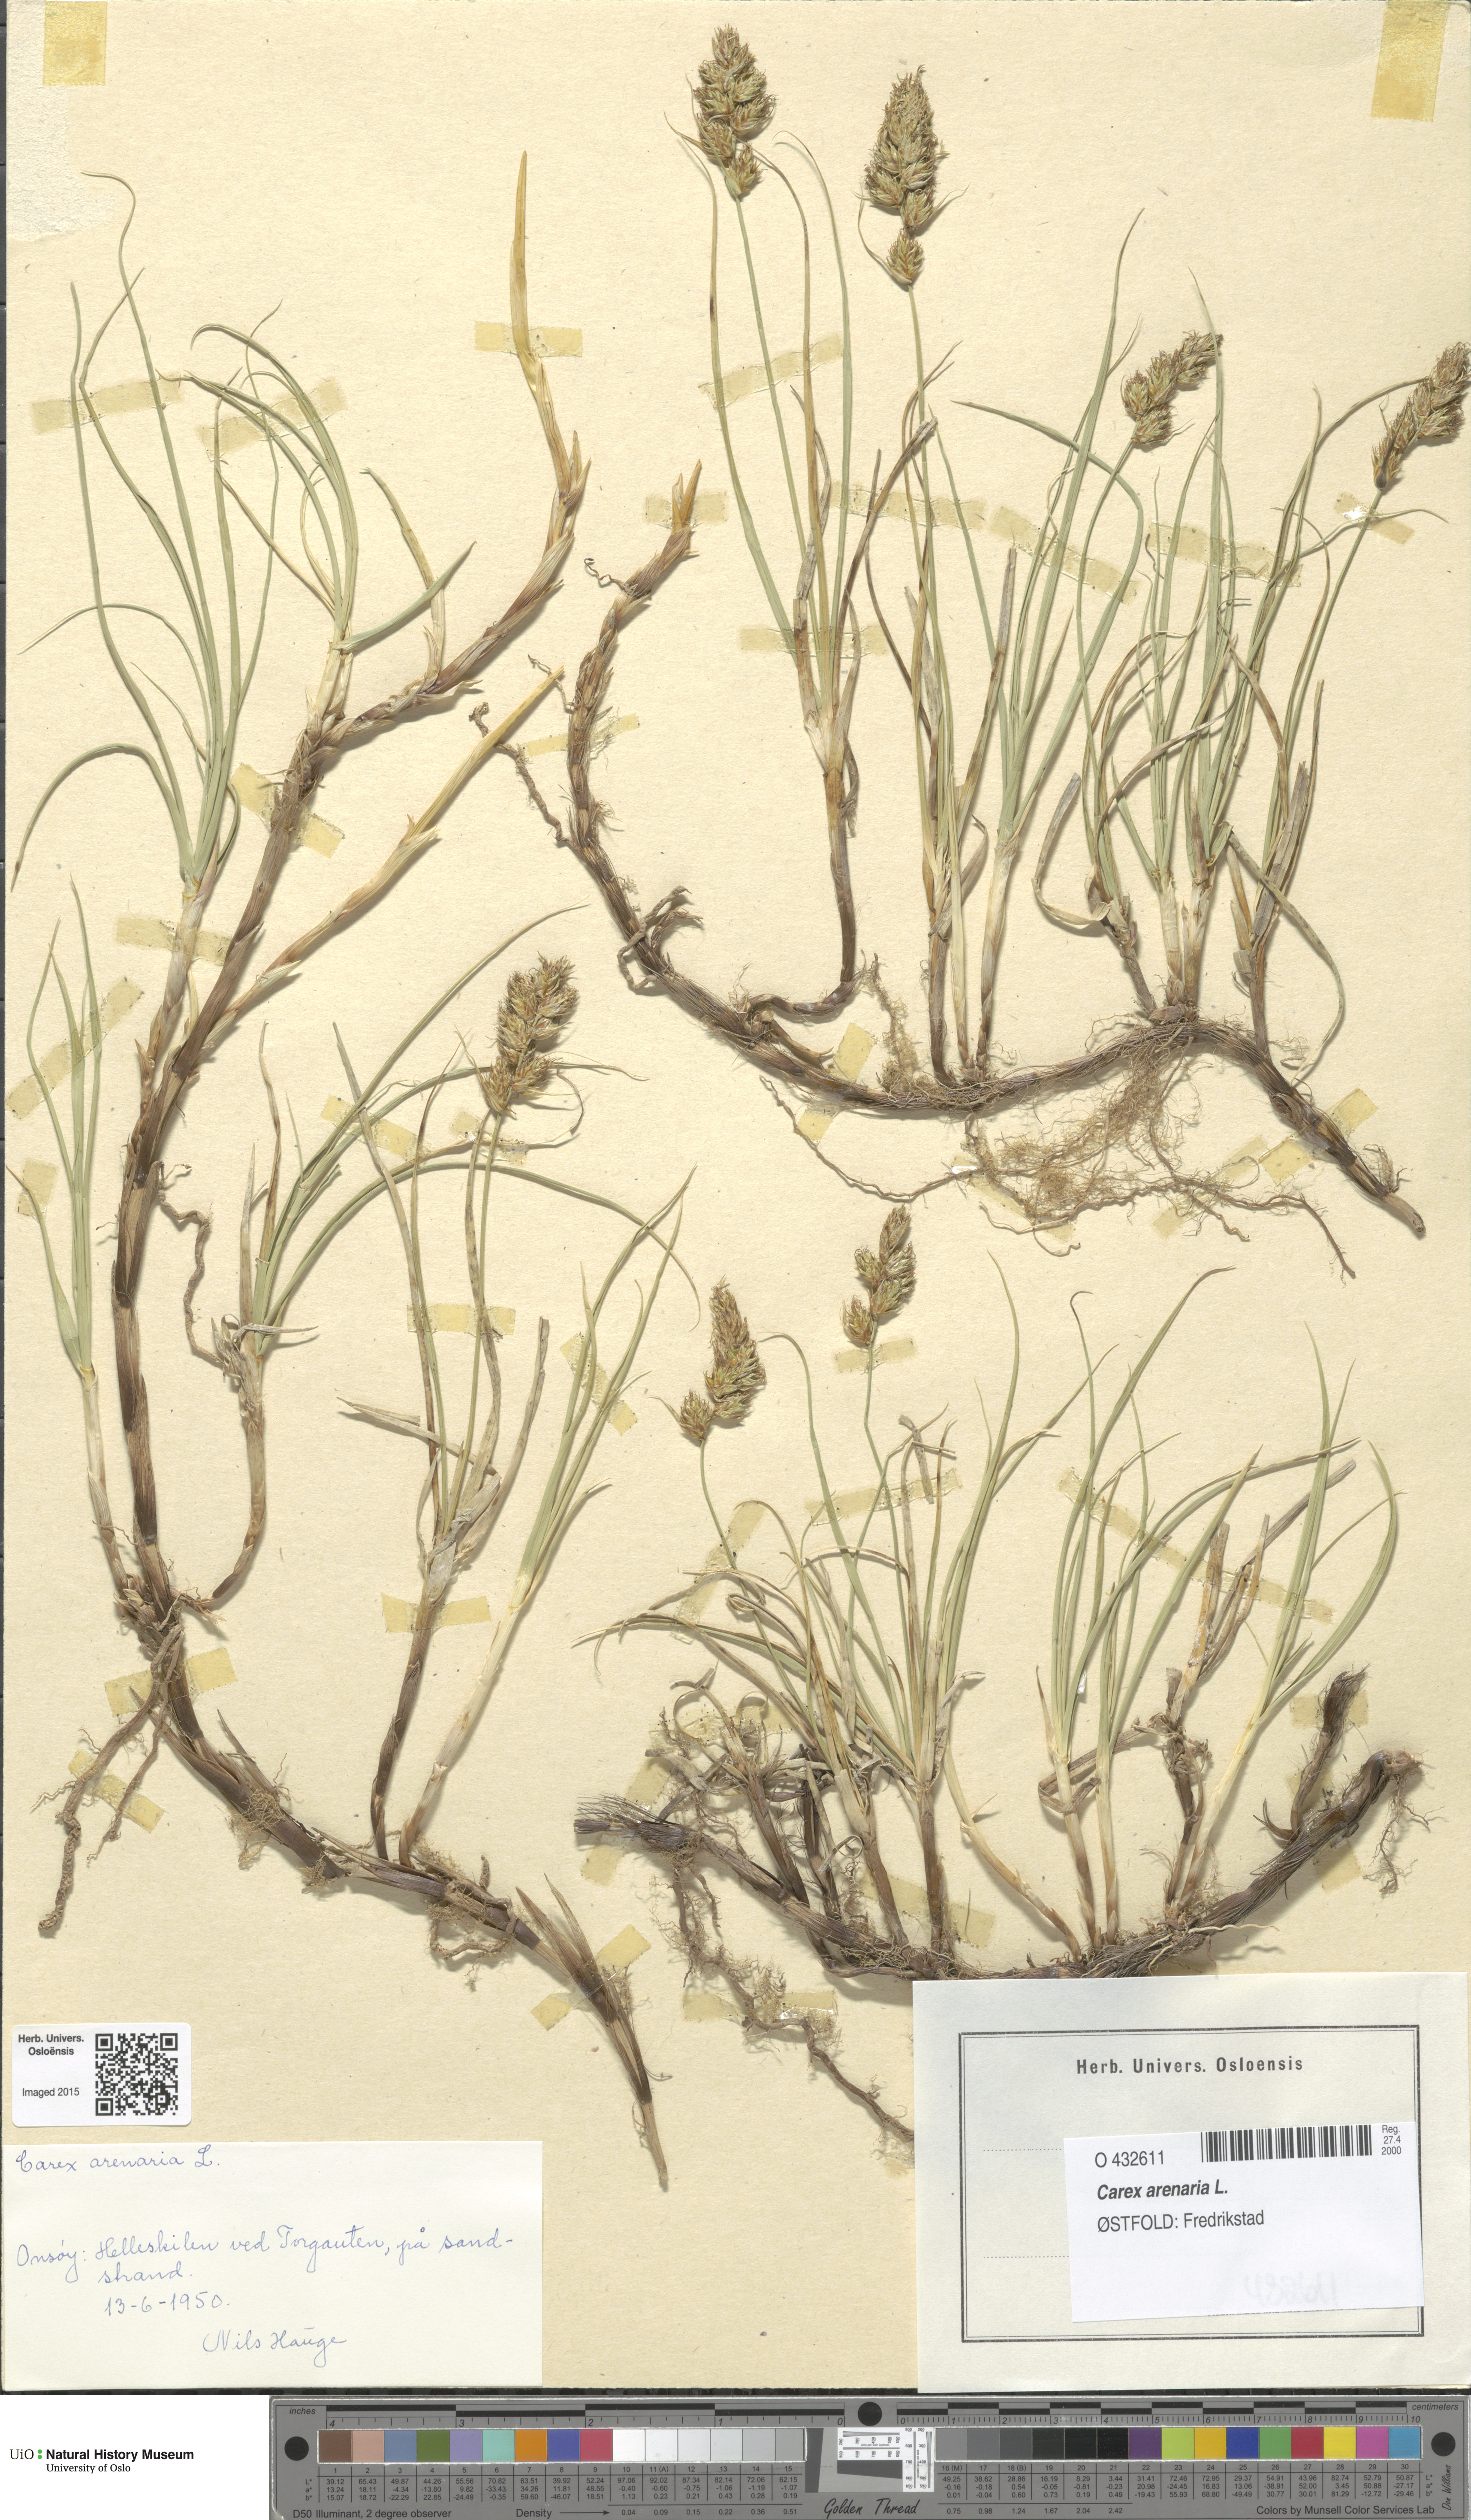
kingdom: Plantae
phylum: Tracheophyta
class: Liliopsida
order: Poales
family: Cyperaceae
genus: Carex
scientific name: Carex arenaria
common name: Sand sedge
